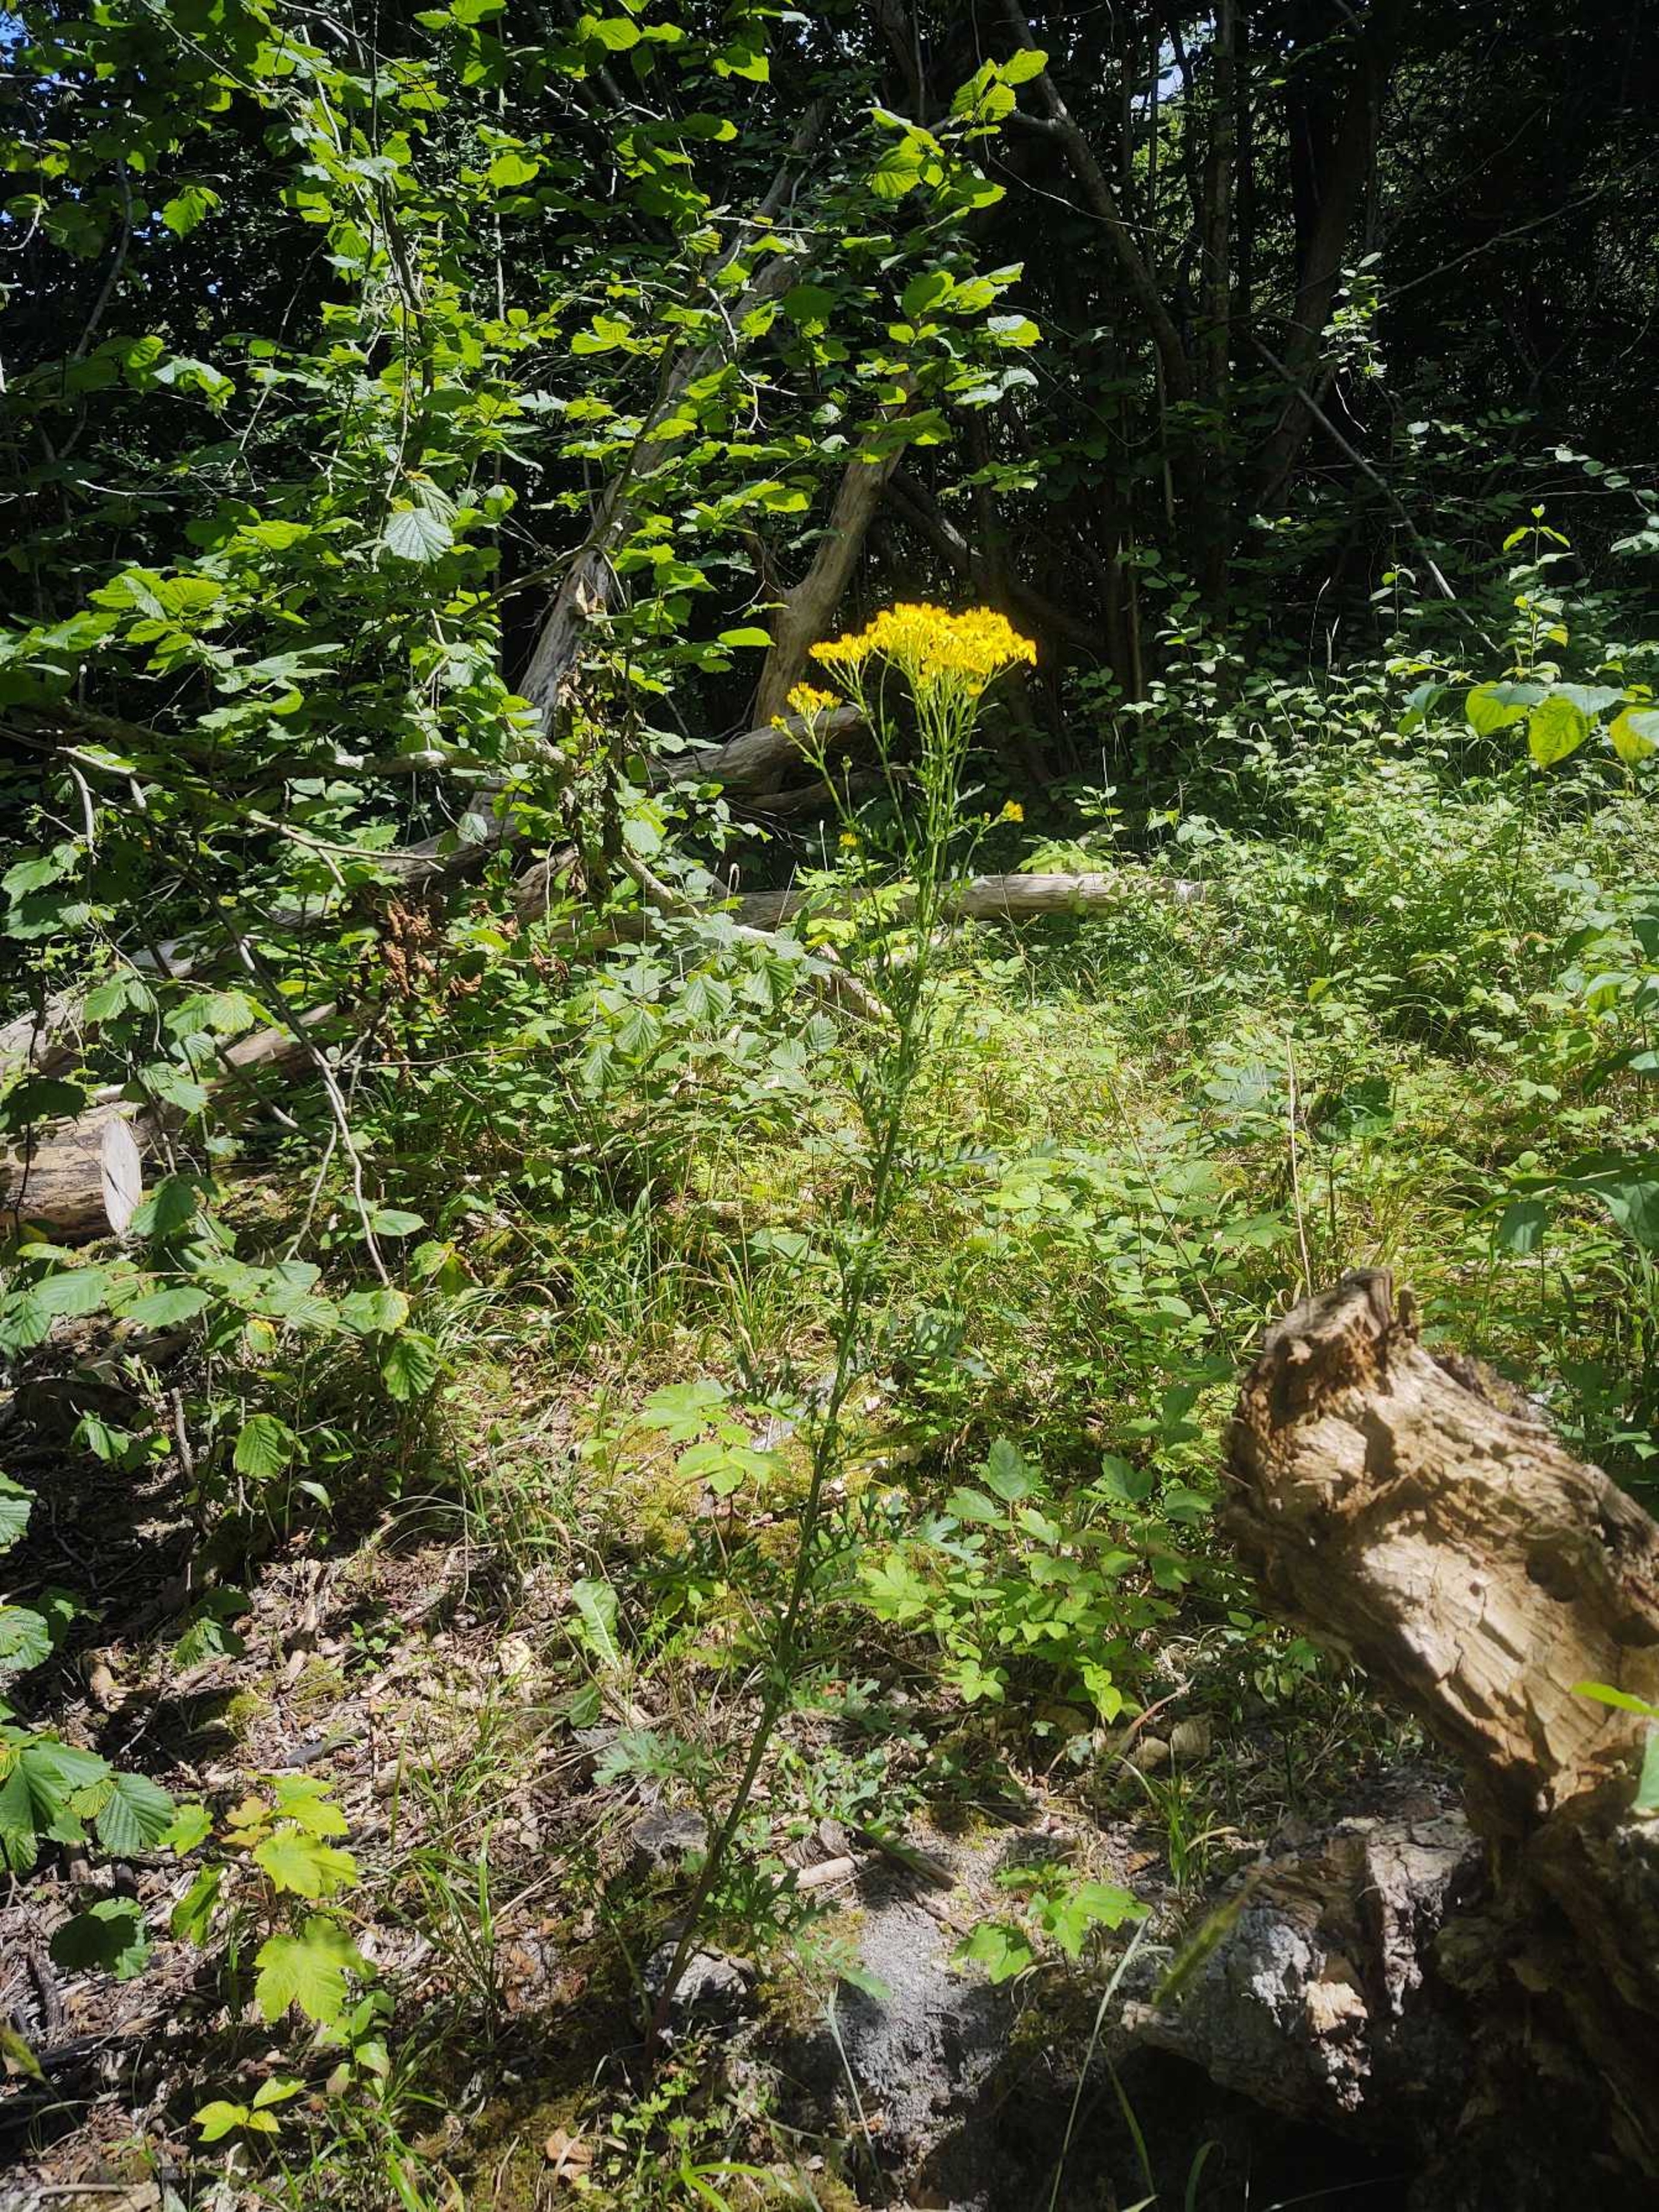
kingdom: Plantae
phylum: Tracheophyta
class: Magnoliopsida
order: Asterales
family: Asteraceae
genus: Jacobaea
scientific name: Jacobaea vulgaris
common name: Eng-brandbæger
